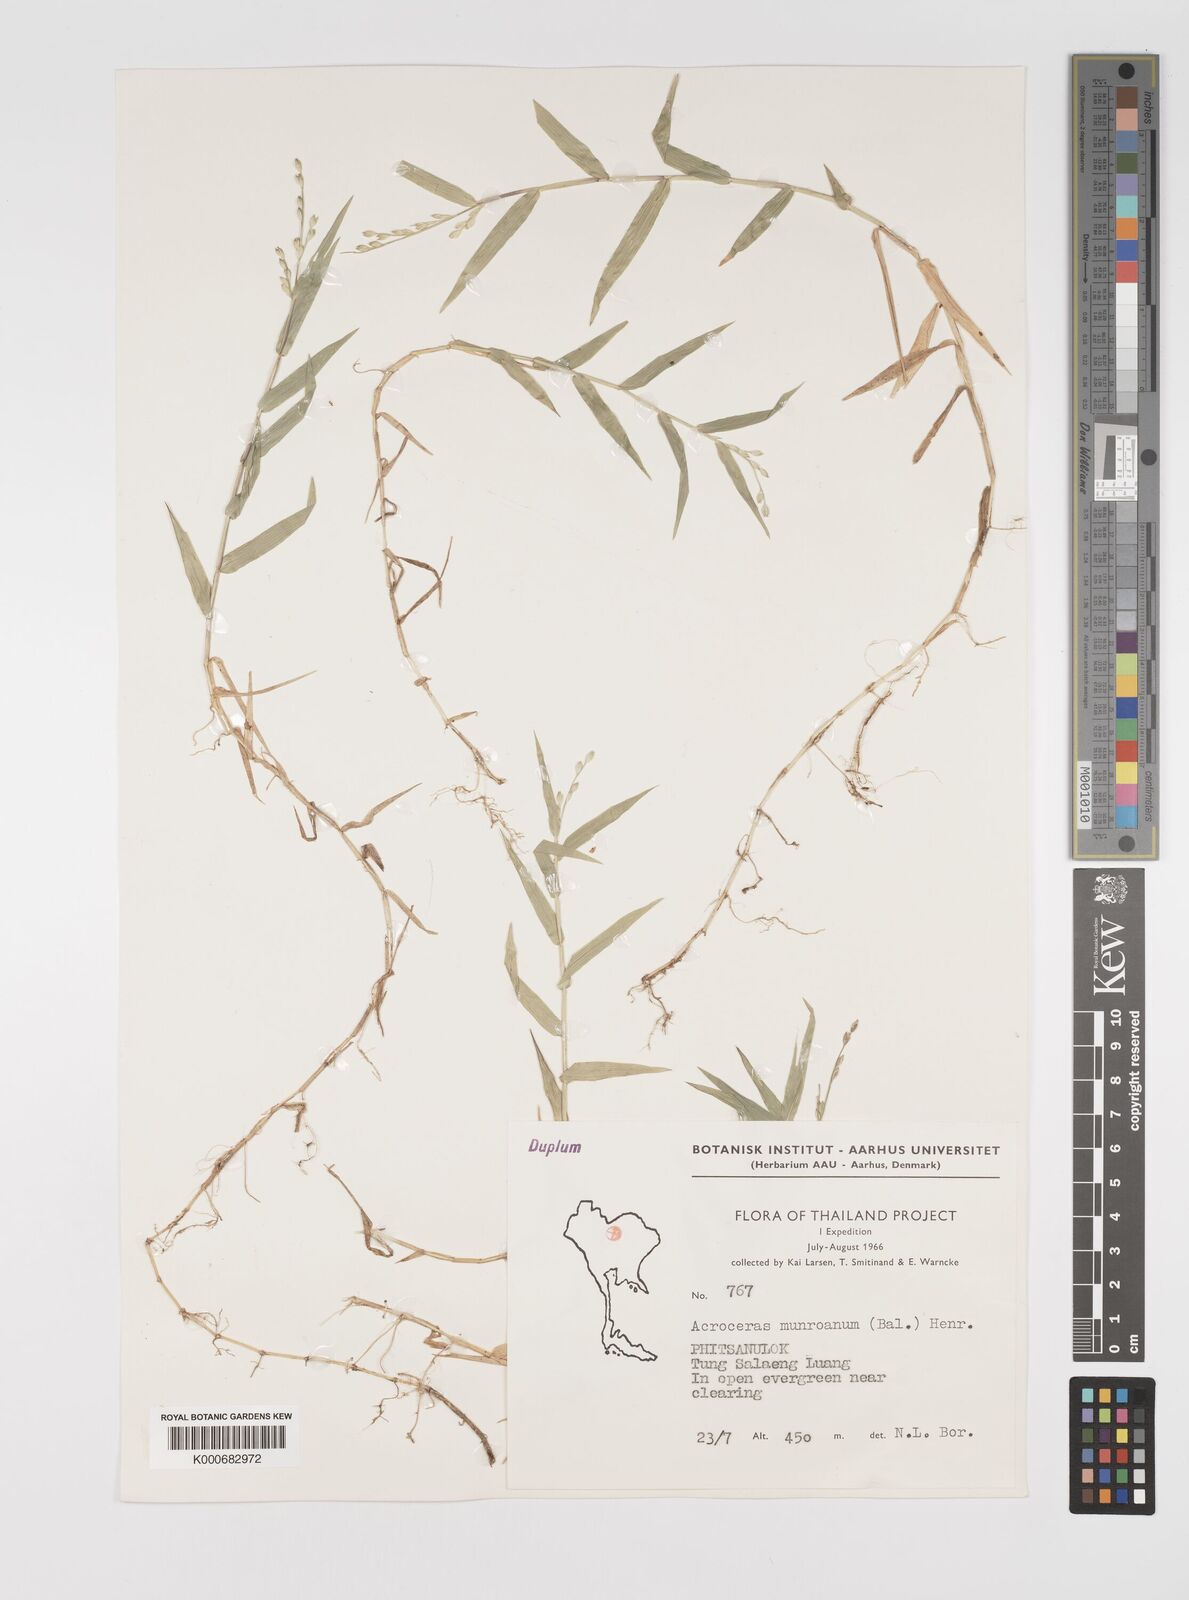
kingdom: Plantae
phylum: Tracheophyta
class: Liliopsida
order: Poales
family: Poaceae
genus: Acroceras
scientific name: Acroceras munroanum
